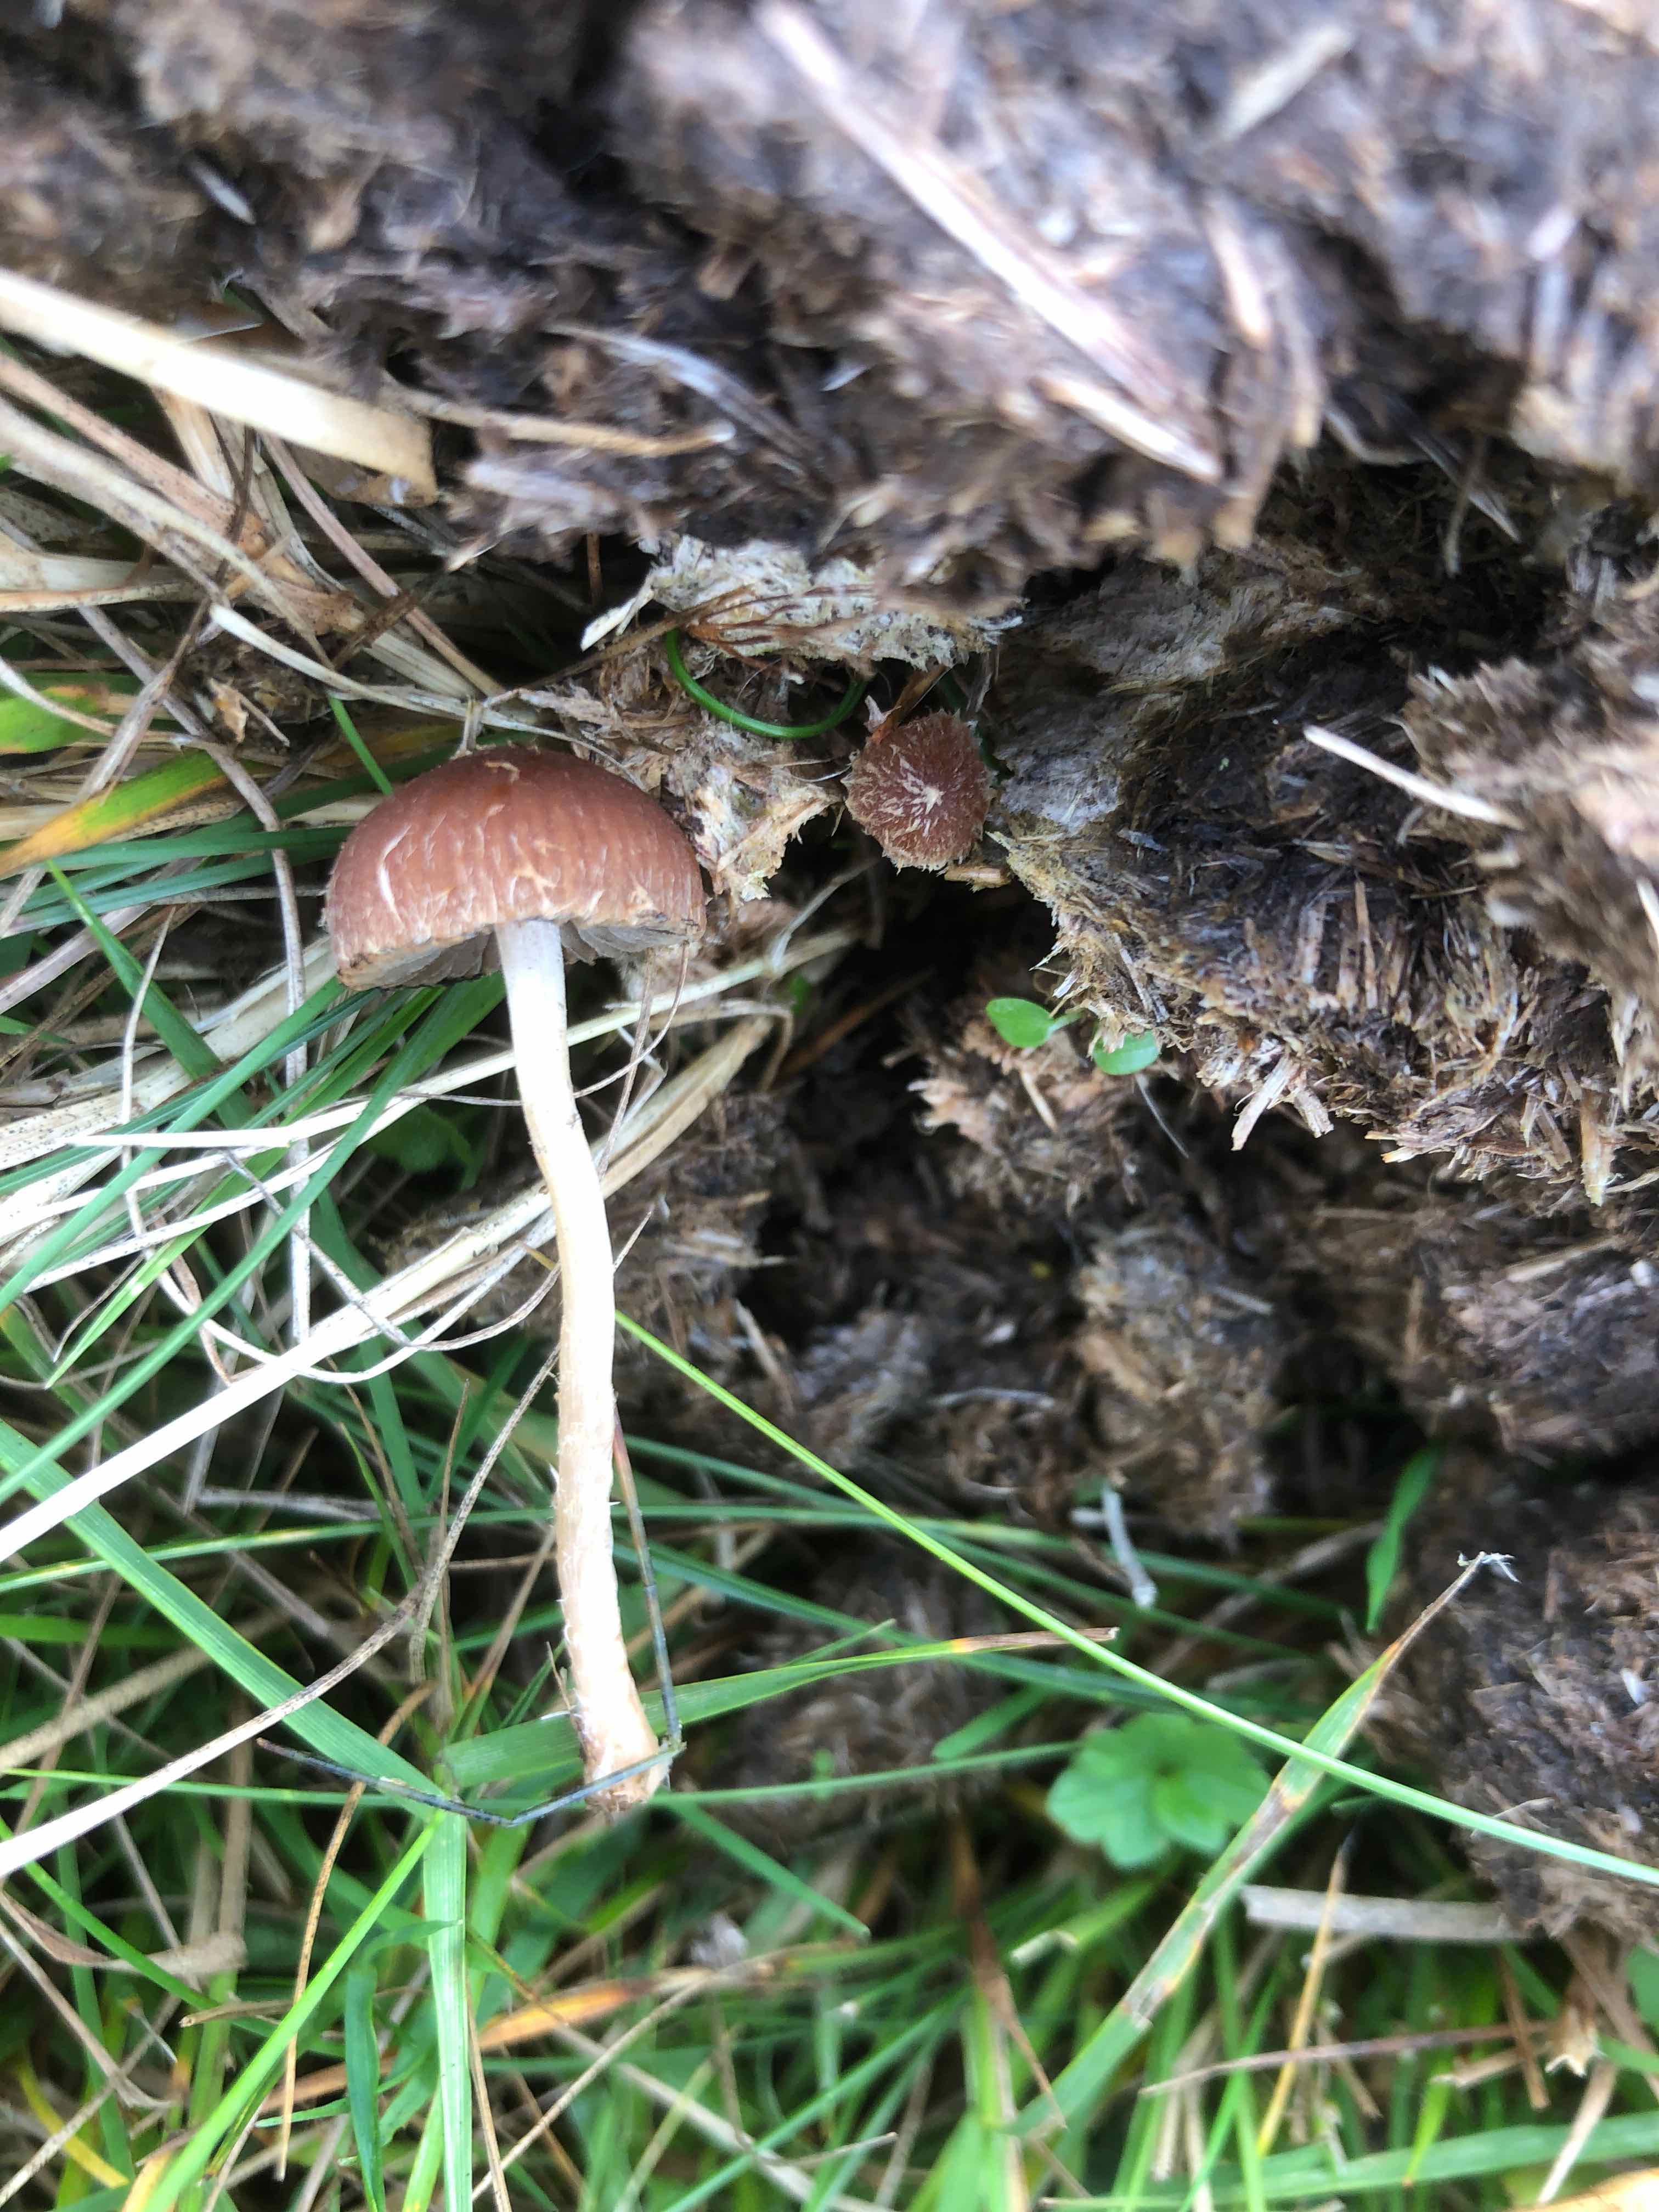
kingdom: Fungi
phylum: Basidiomycota
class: Agaricomycetes
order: Agaricales
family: Psathyrellaceae
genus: Psathyrella
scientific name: Psathyrella
